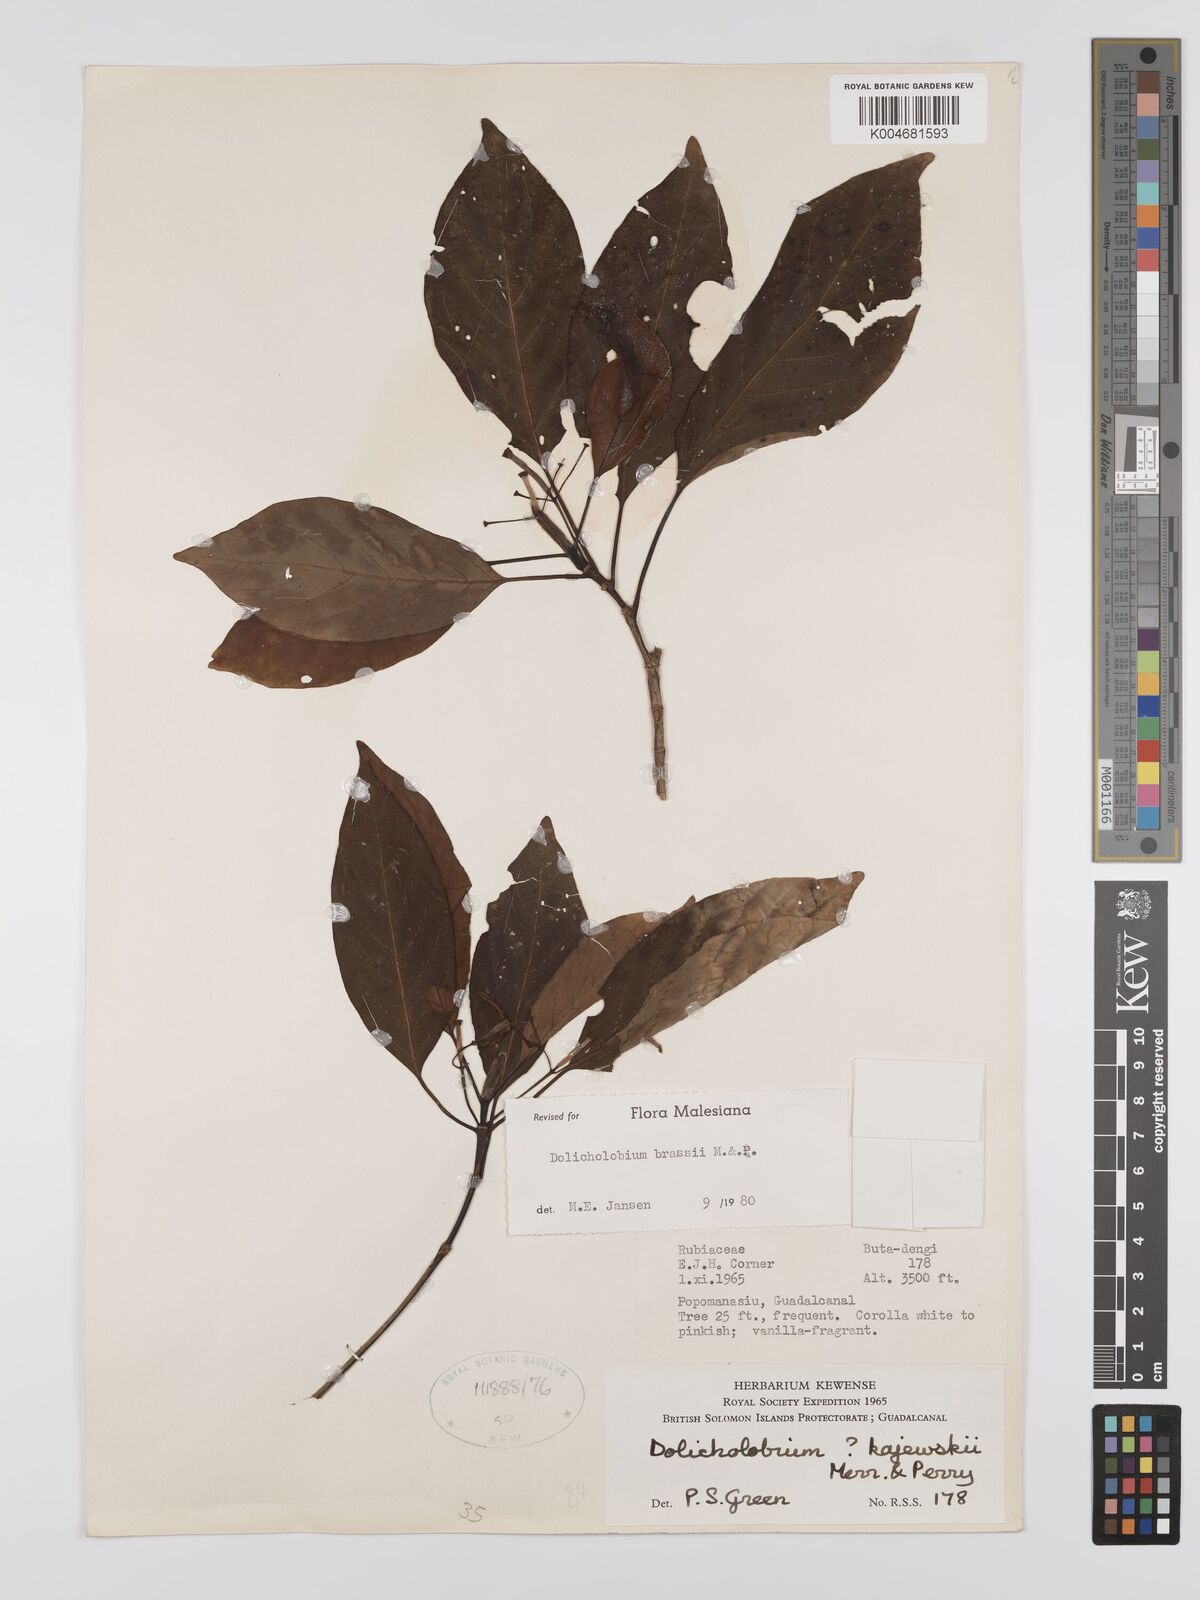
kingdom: Plantae
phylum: Tracheophyta
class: Magnoliopsida
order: Gentianales
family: Rubiaceae
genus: Dolicholobium
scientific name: Dolicholobium brassii
